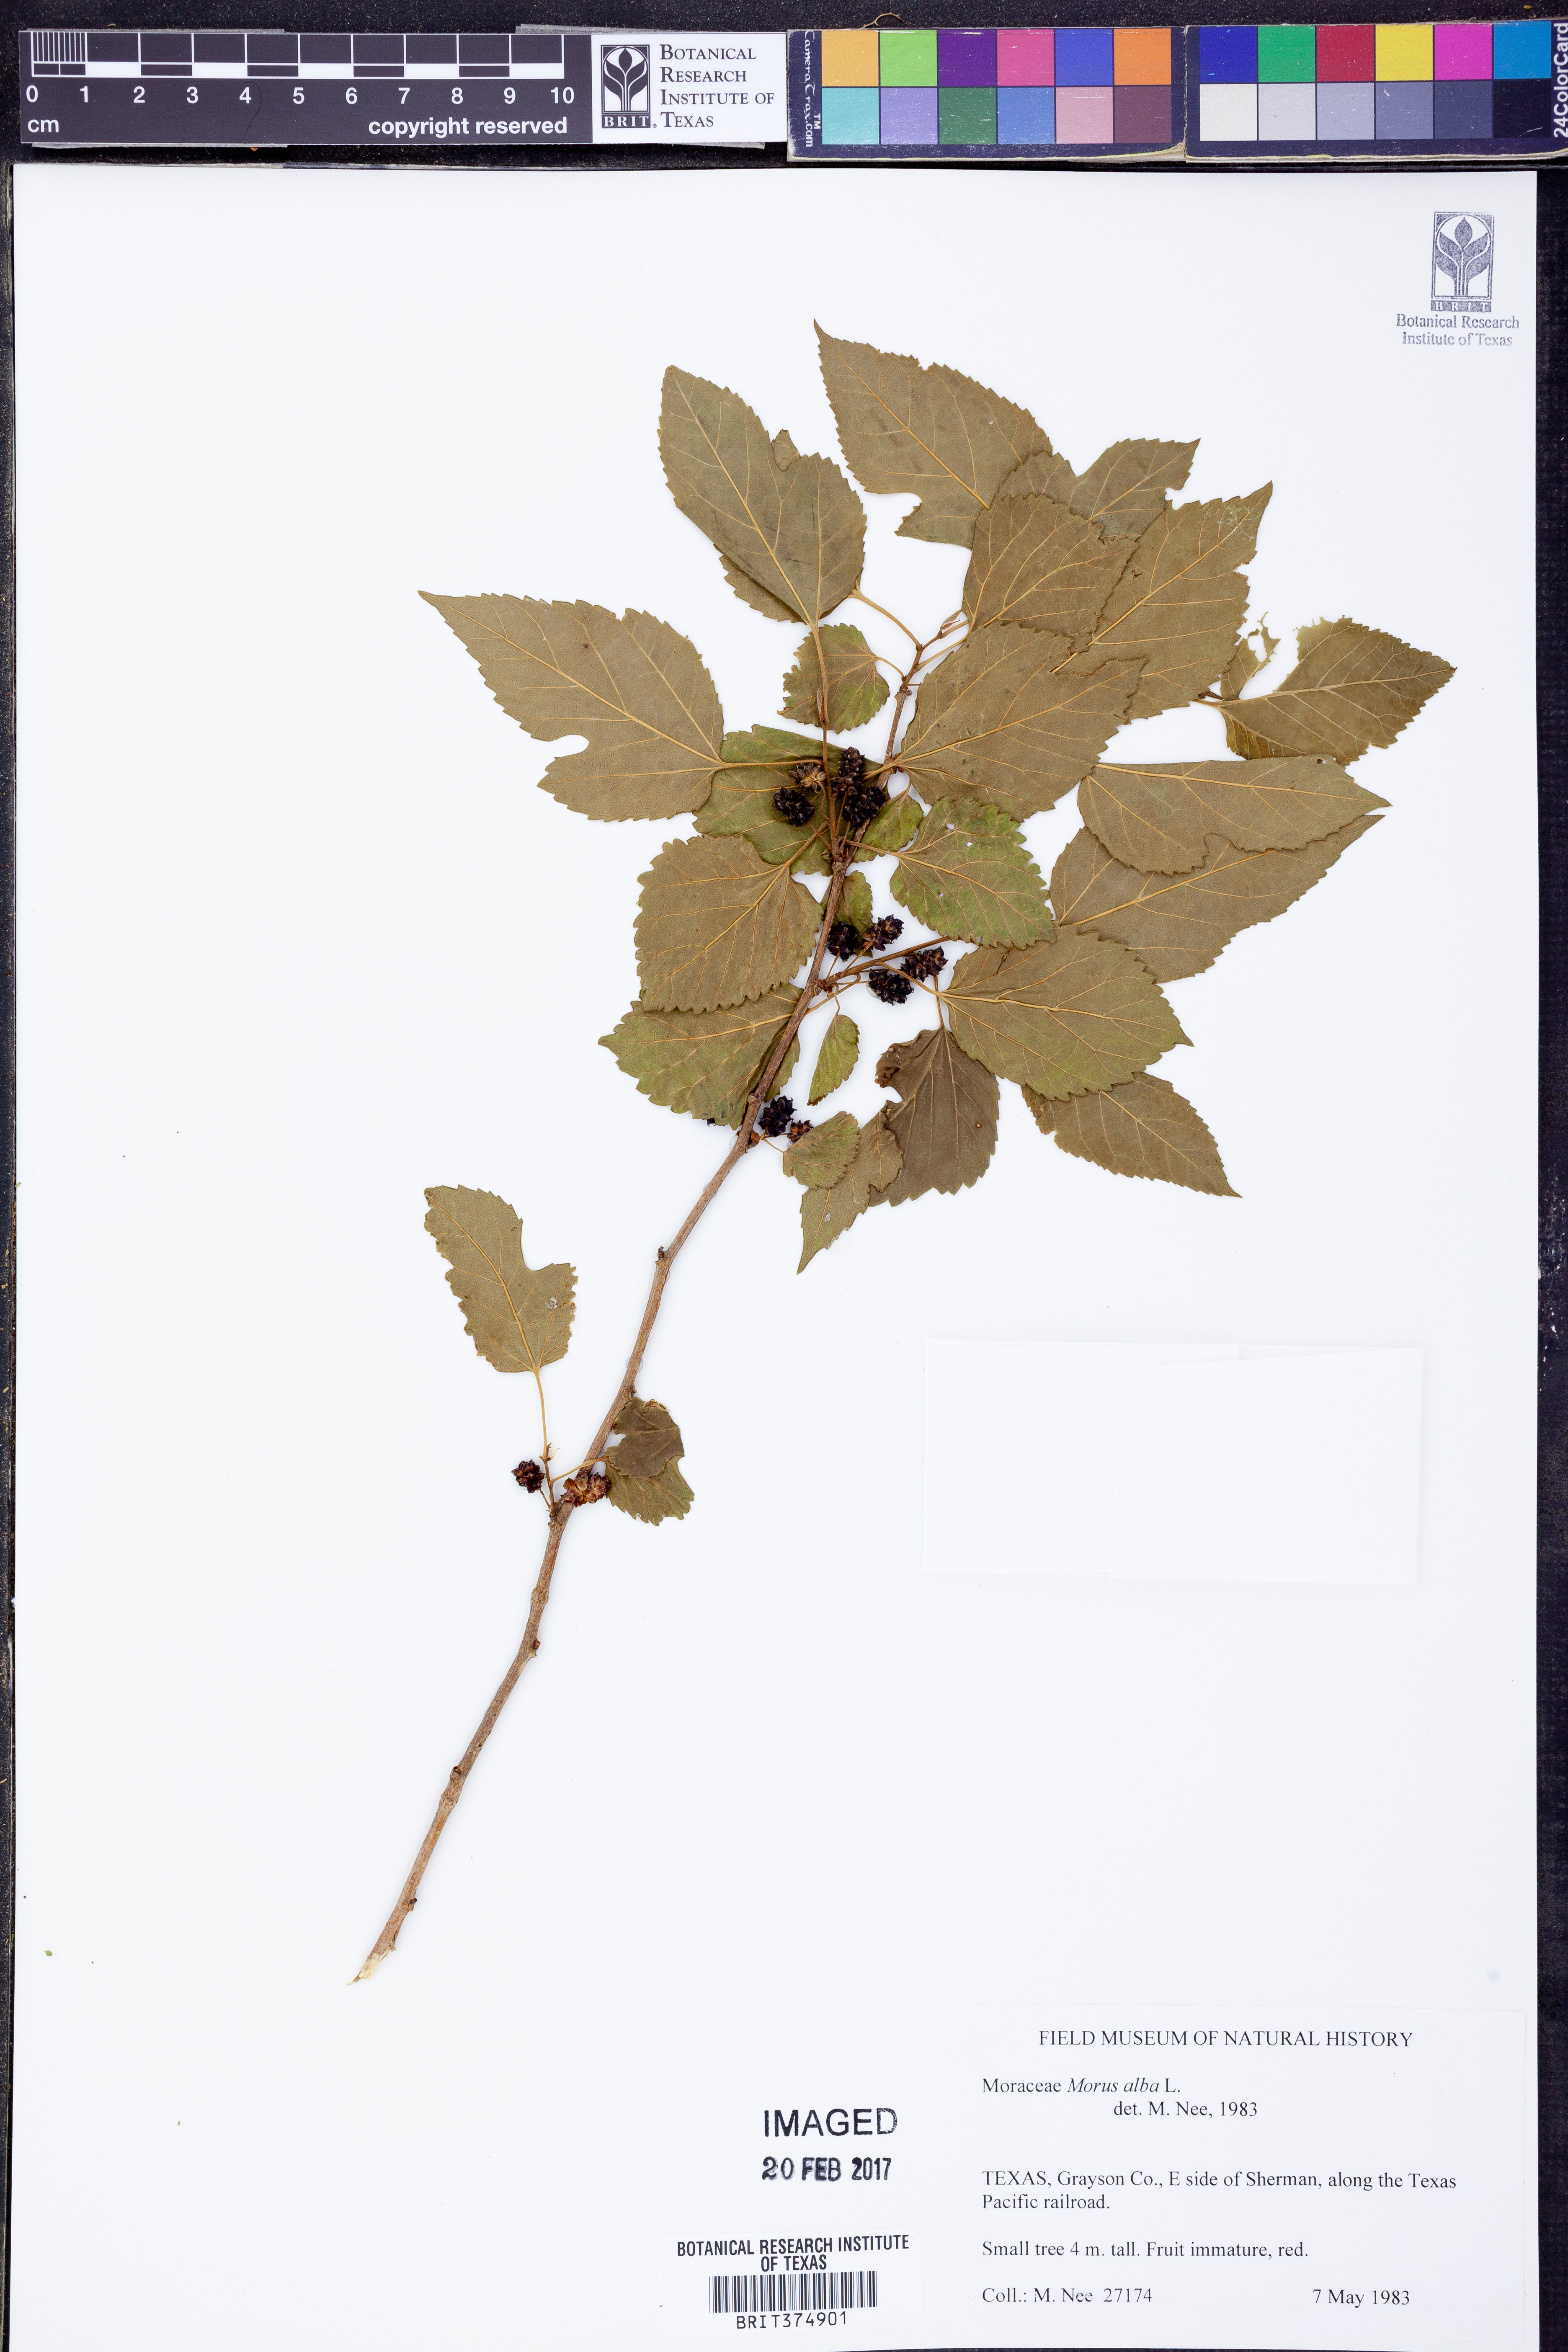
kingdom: Plantae
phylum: Tracheophyta
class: Magnoliopsida
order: Rosales
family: Moraceae
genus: Morus
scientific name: Morus alba
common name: White mulberry
